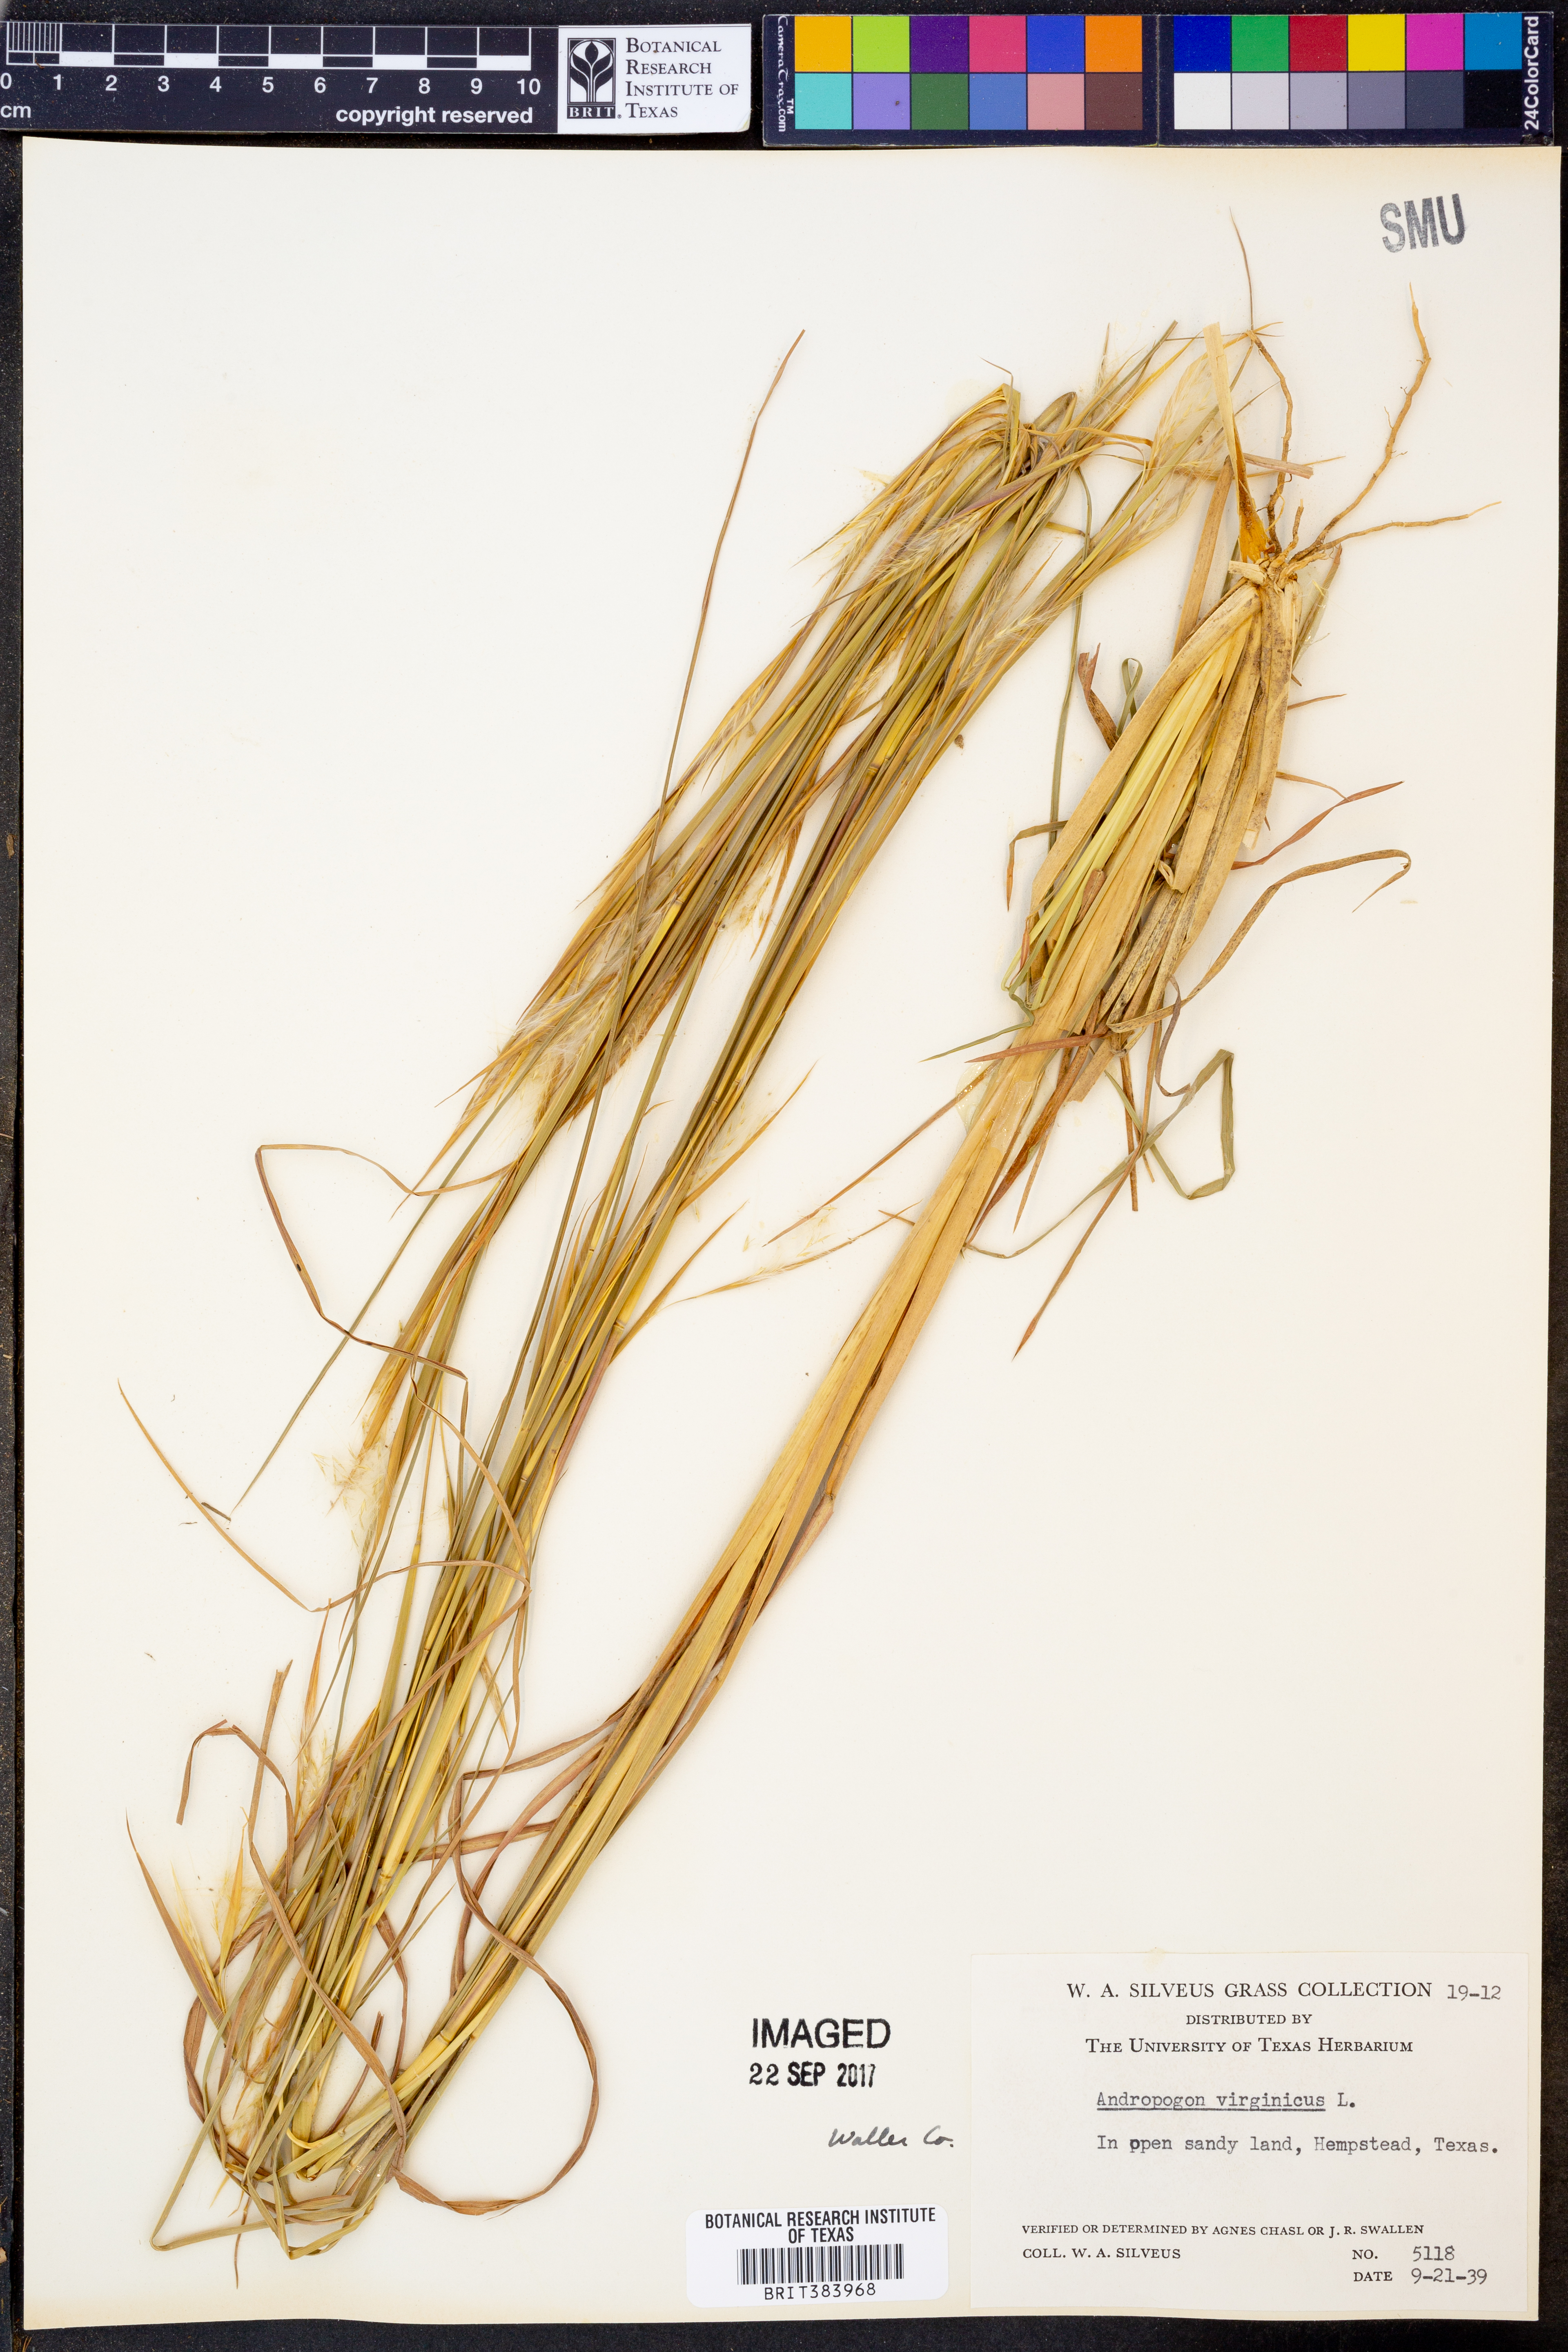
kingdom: Plantae
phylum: Tracheophyta
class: Liliopsida
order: Poales
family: Poaceae
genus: Andropogon
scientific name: Andropogon virginicus
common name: Broomsedge bluestem
